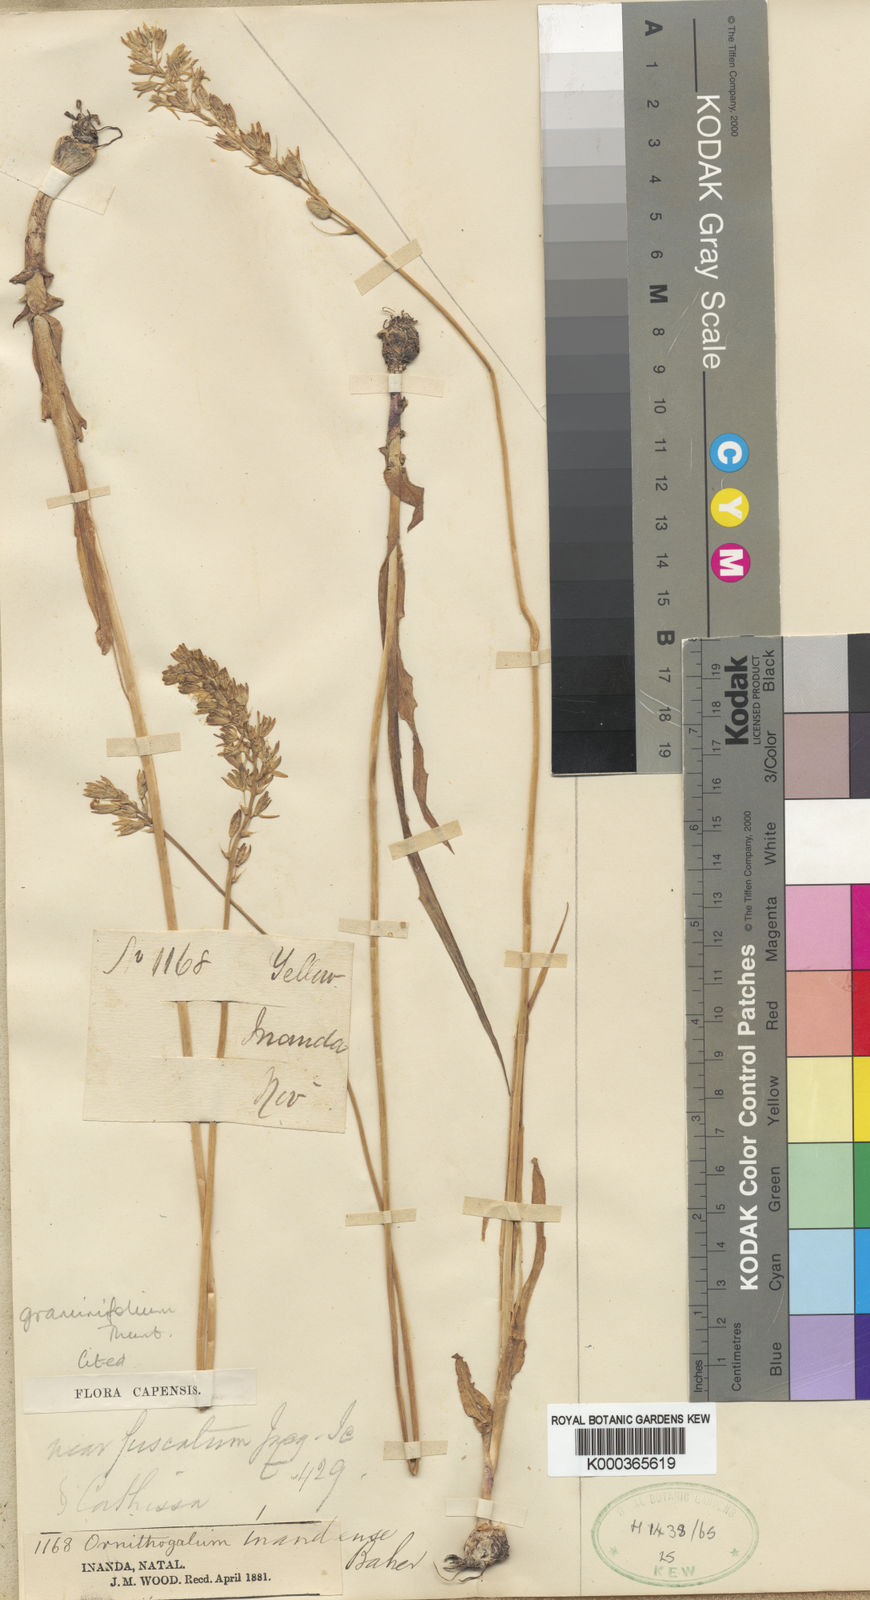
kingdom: Plantae
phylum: Tracheophyta
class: Liliopsida
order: Asparagales
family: Asparagaceae
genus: Ornithogalum
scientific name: Ornithogalum graminifolium
